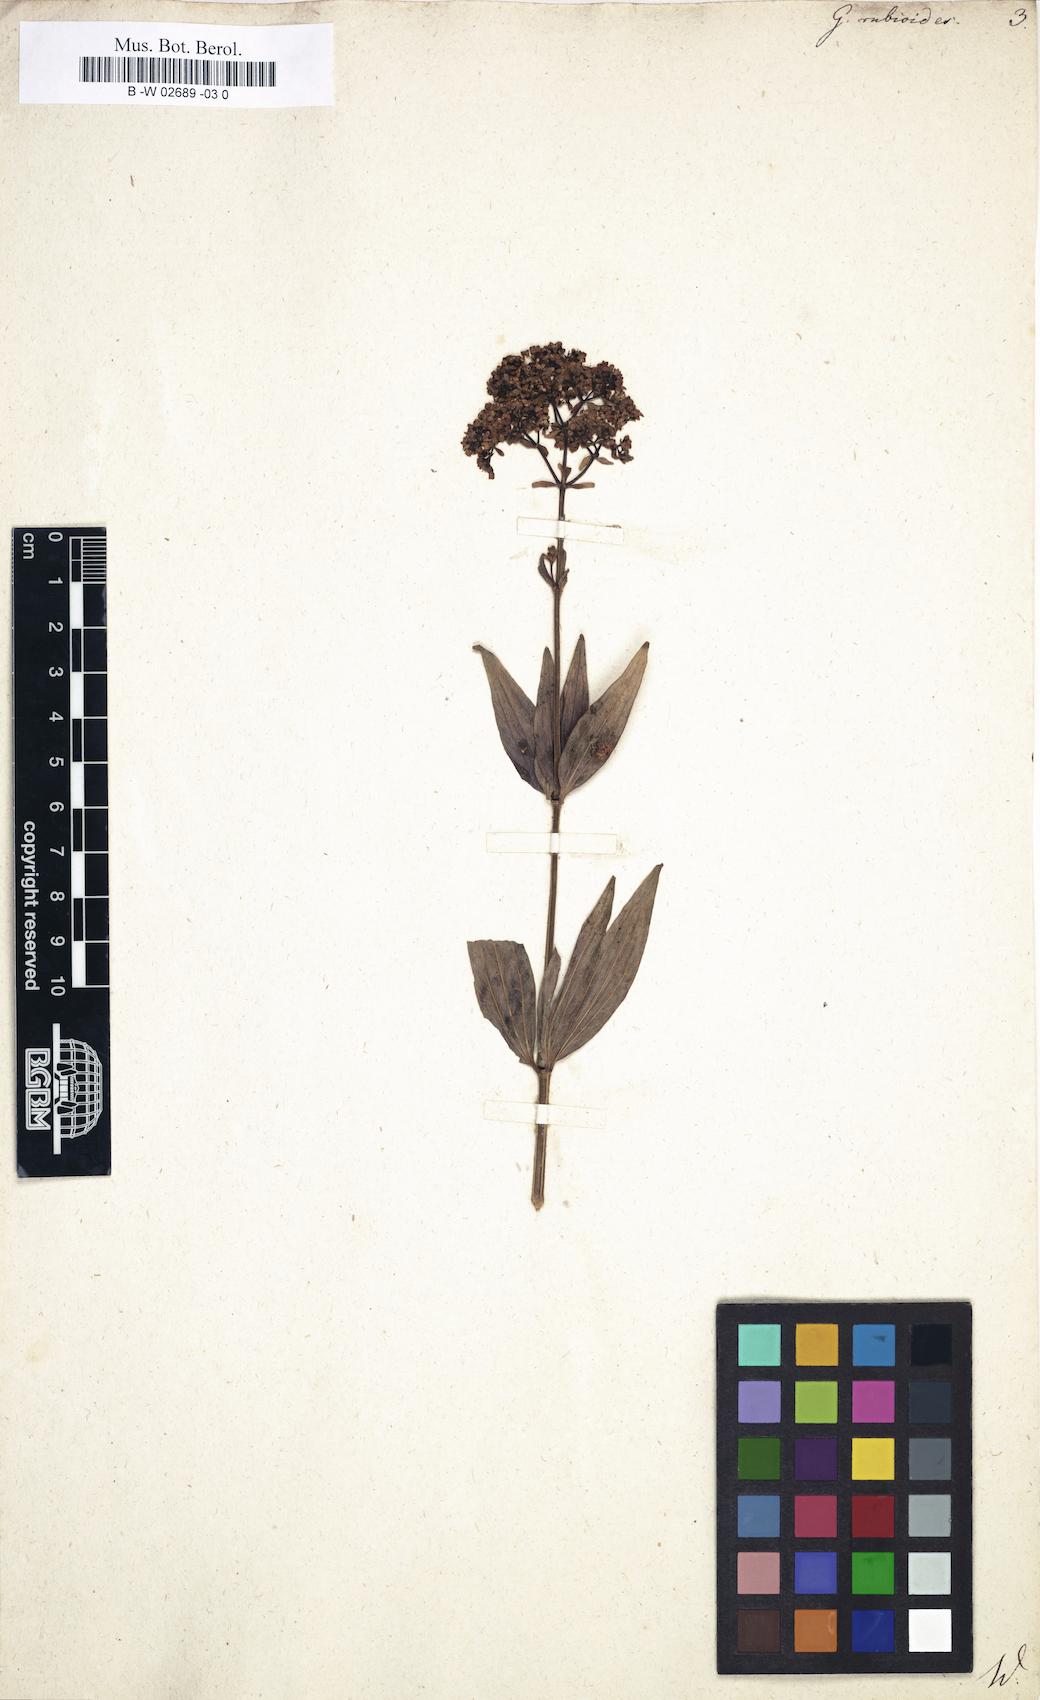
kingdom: Plantae
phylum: Tracheophyta
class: Magnoliopsida
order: Gentianales
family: Rubiaceae
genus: Galium
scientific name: Galium rubioides
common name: European bedstraw
